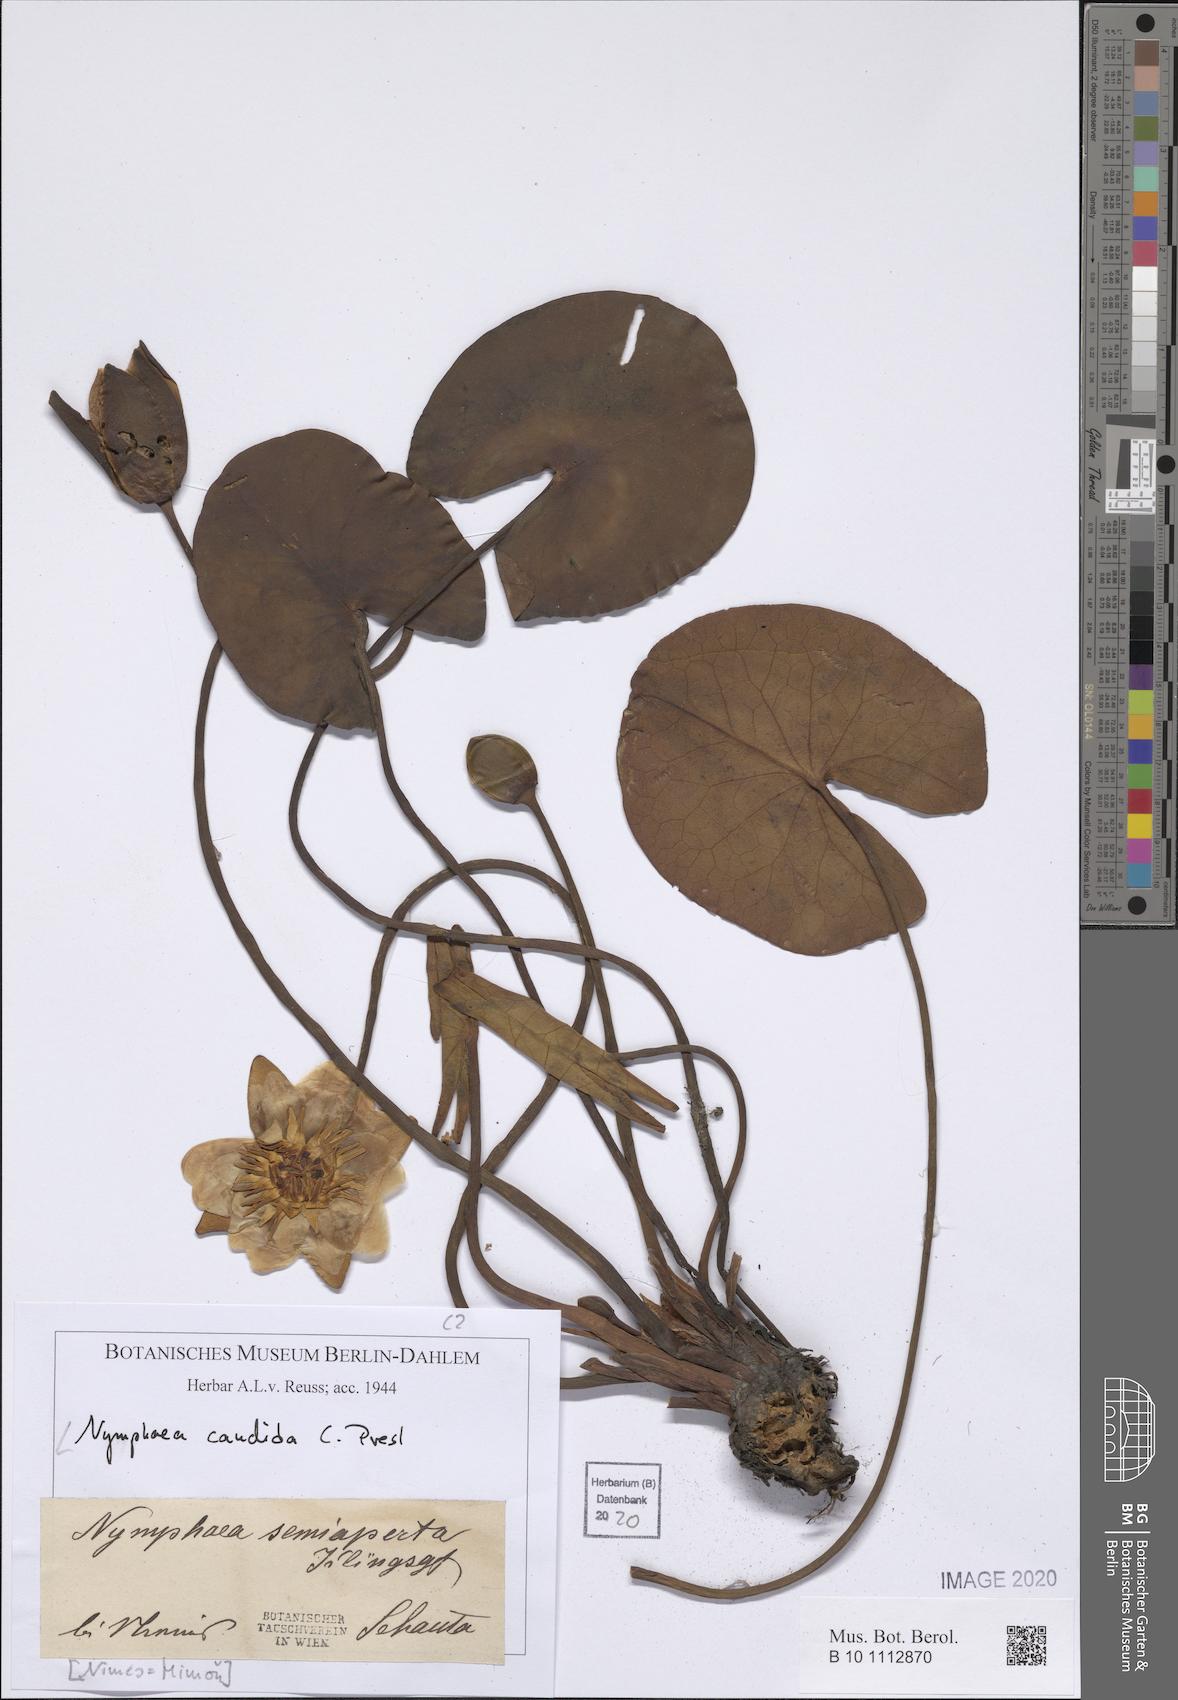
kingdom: Plantae
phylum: Tracheophyta
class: Magnoliopsida
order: Nymphaeales
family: Nymphaeaceae
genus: Nymphaea
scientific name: Nymphaea candida
